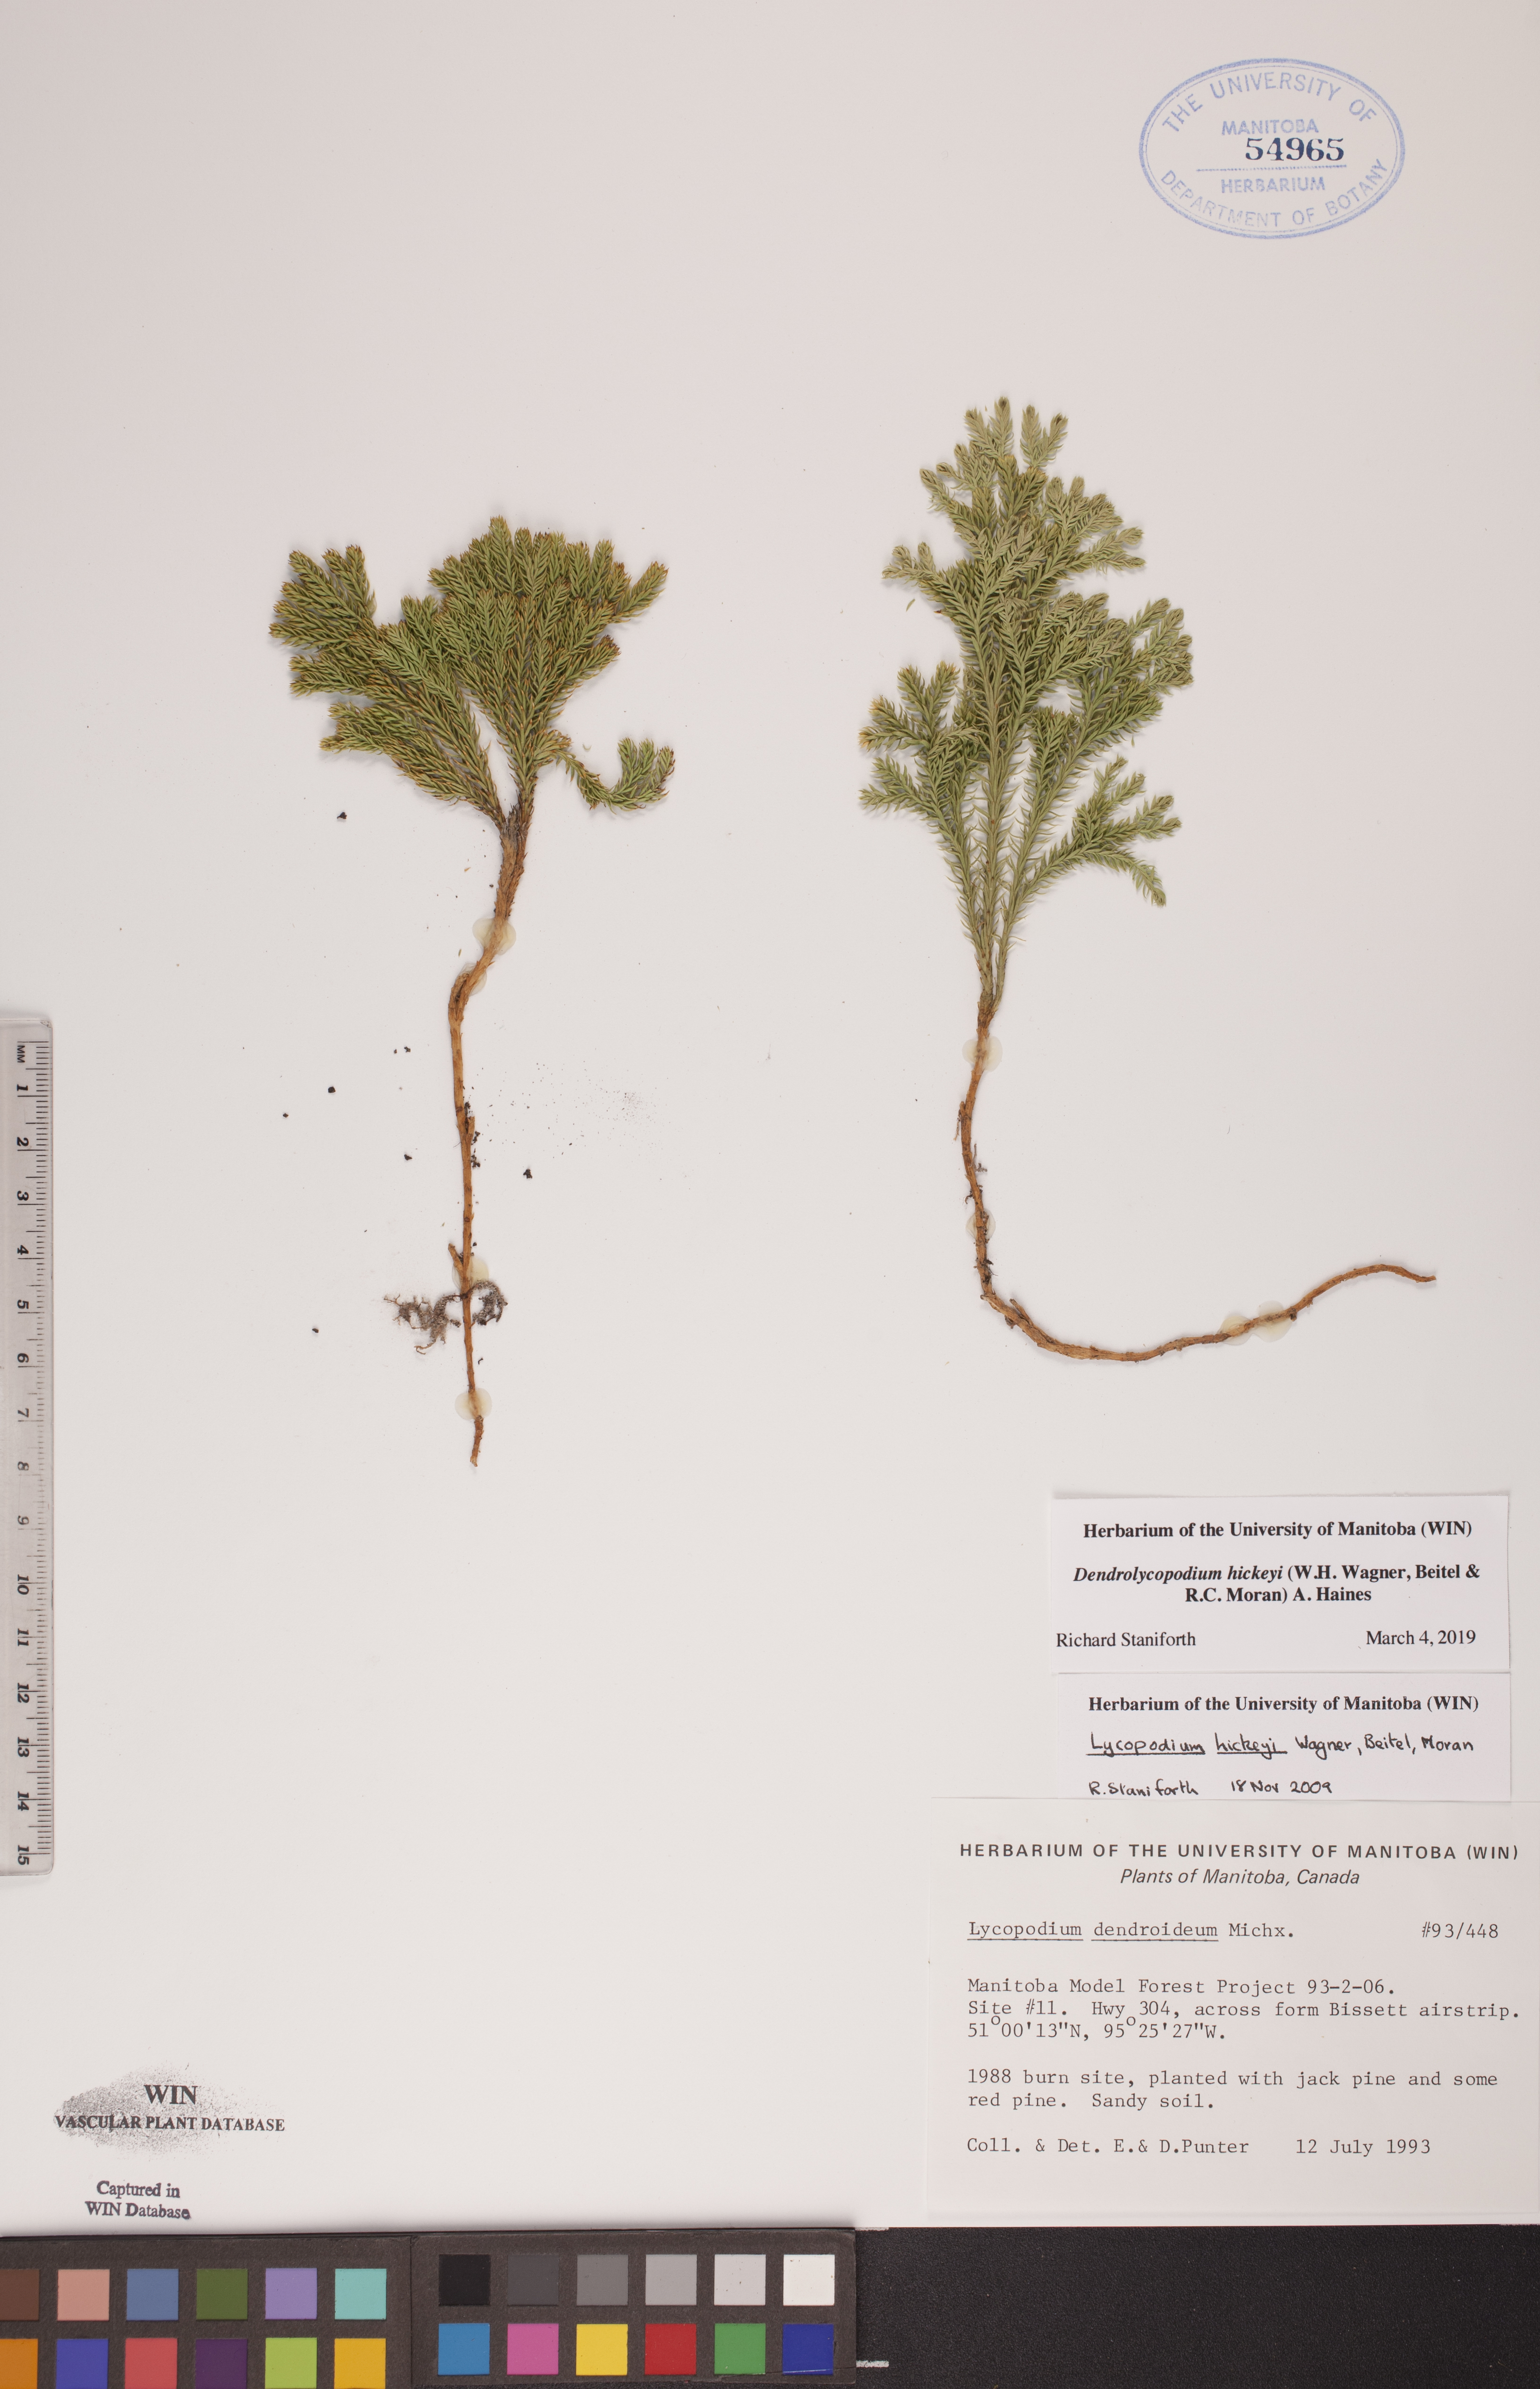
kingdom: Plantae
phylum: Tracheophyta
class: Lycopodiopsida
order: Lycopodiales
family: Lycopodiaceae
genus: Dendrolycopodium
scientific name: Dendrolycopodium hickeyi
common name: Hickey's clubmoss
